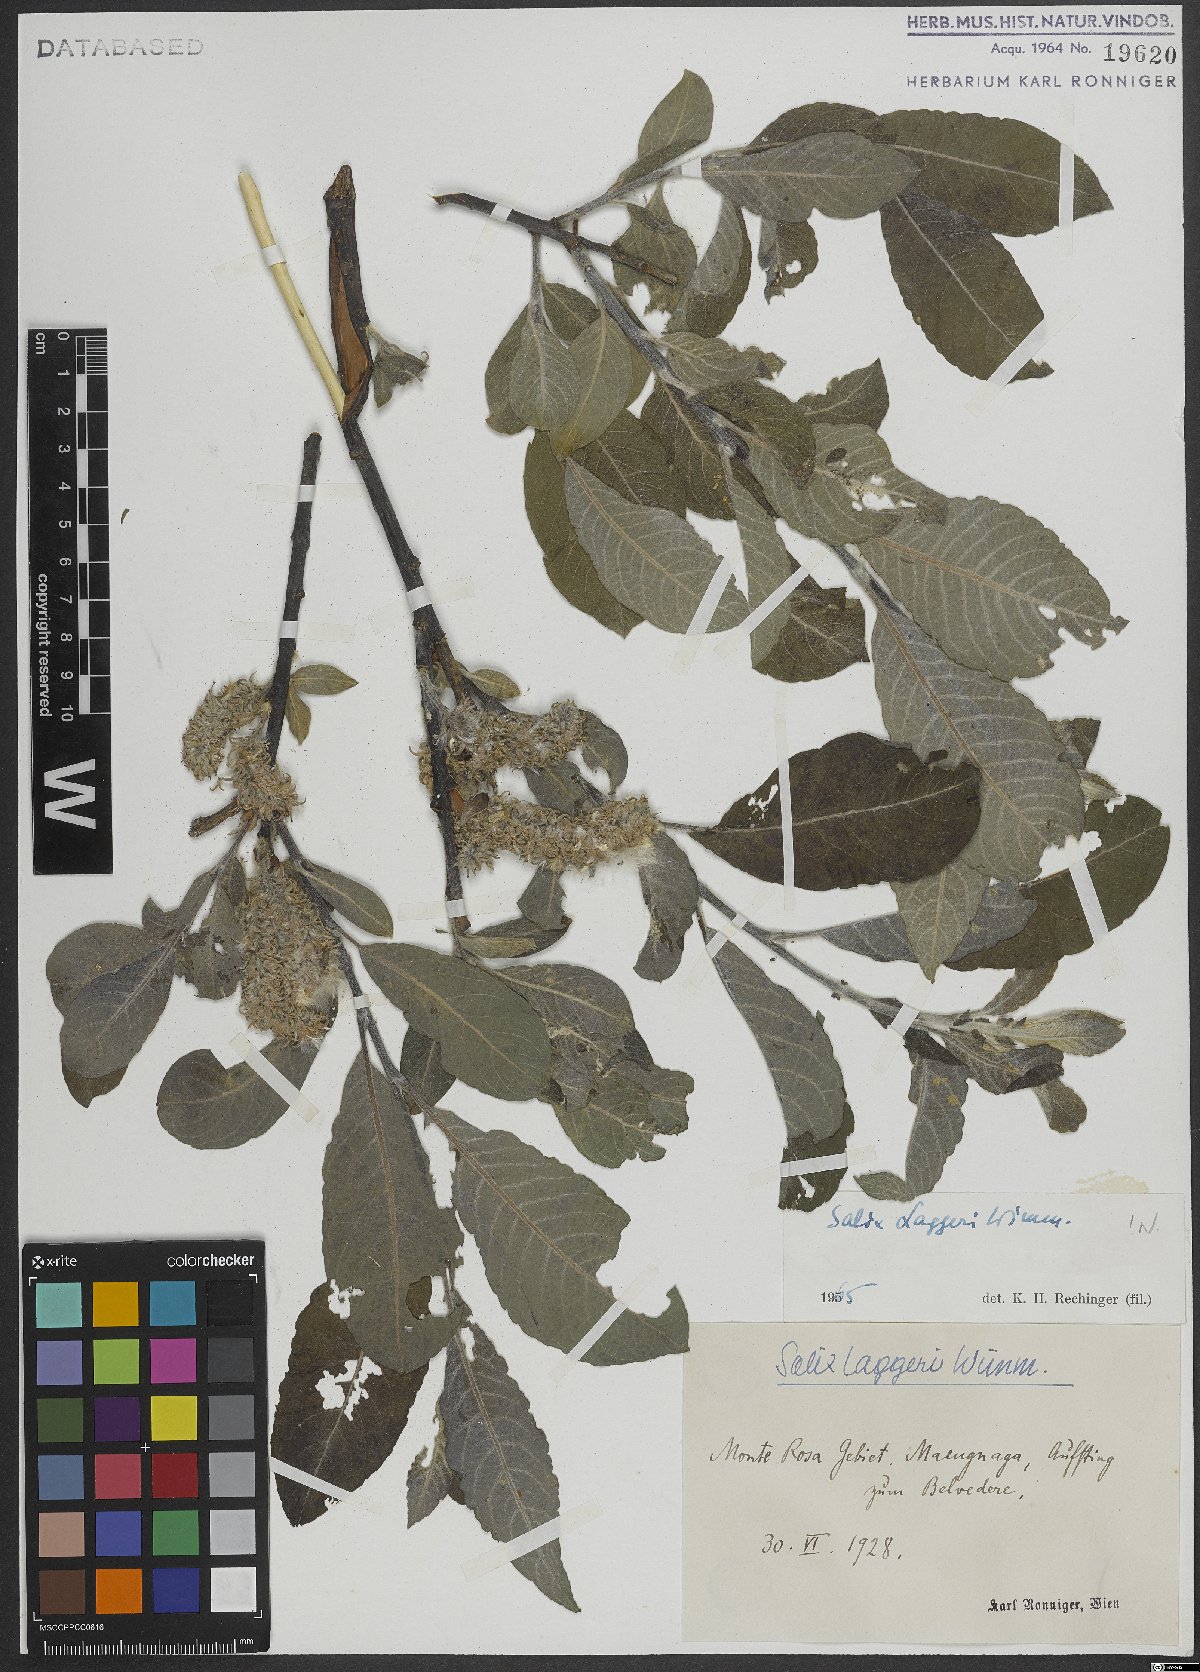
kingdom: Plantae
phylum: Tracheophyta
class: Magnoliopsida
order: Malpighiales
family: Salicaceae
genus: Salix
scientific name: Salix laggeri
